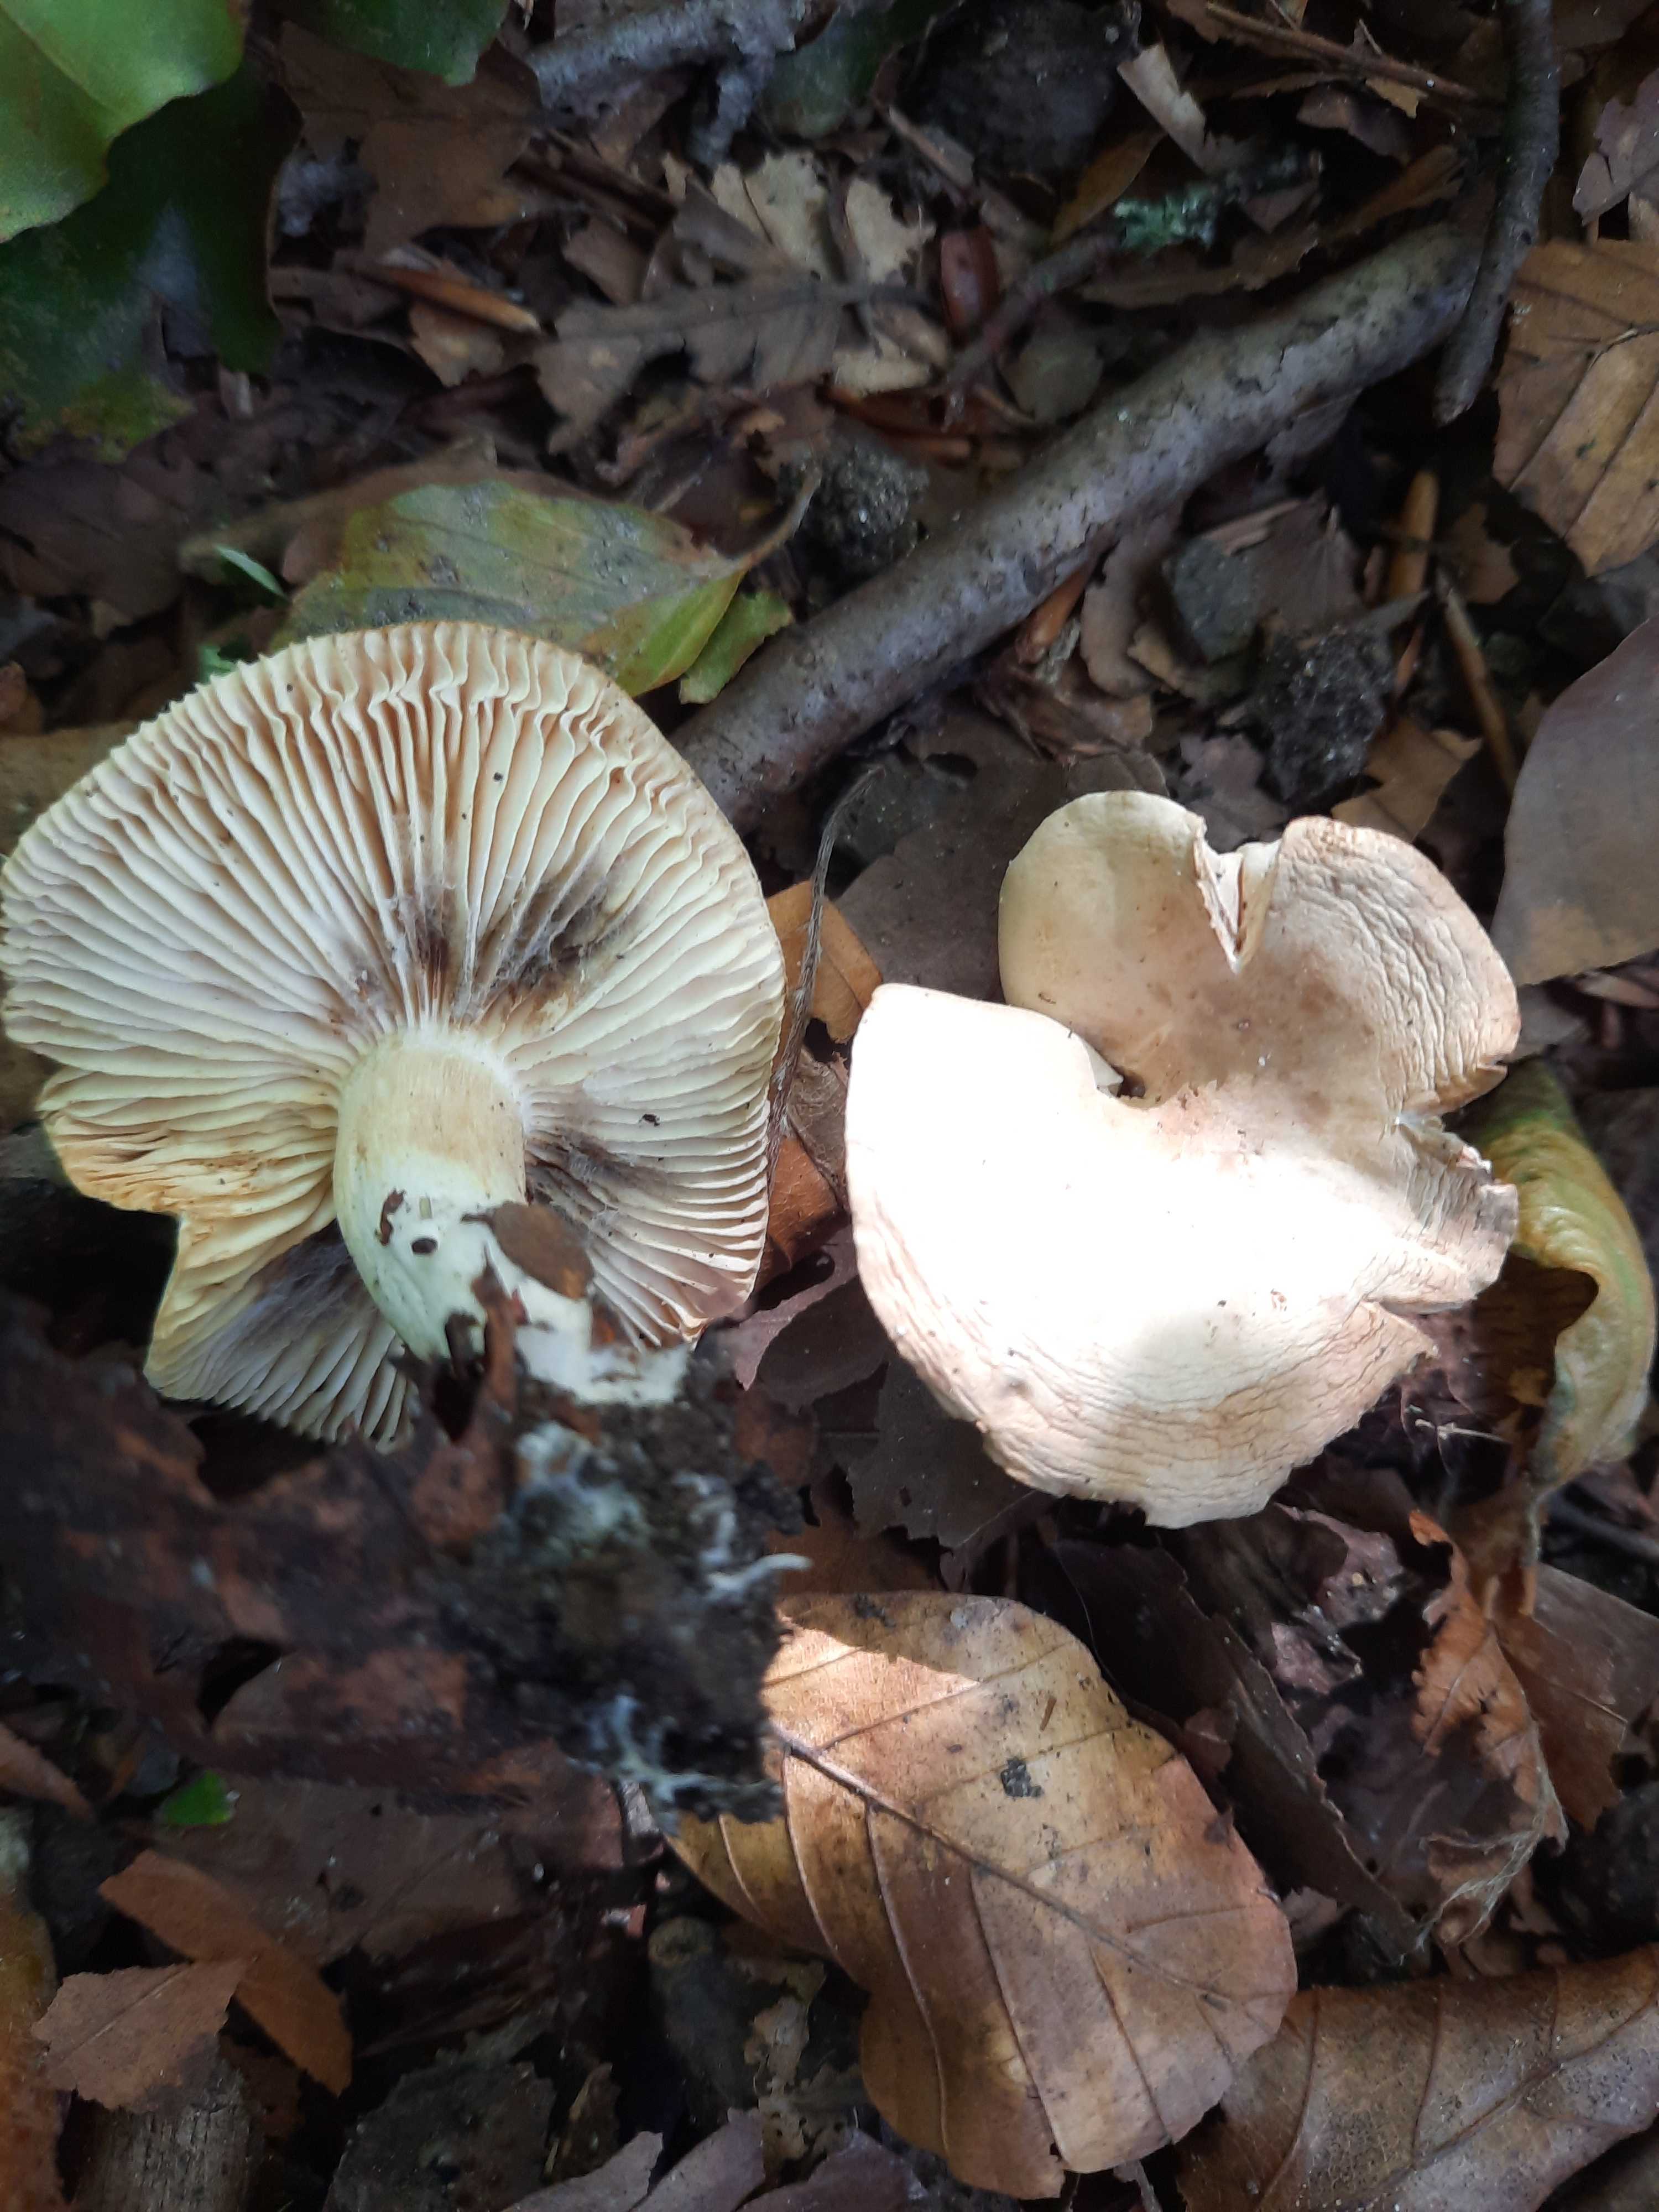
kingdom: Fungi
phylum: Basidiomycota
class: Agaricomycetes
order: Agaricales
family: Tricholomataceae
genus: Tricholoma
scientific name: Tricholoma
